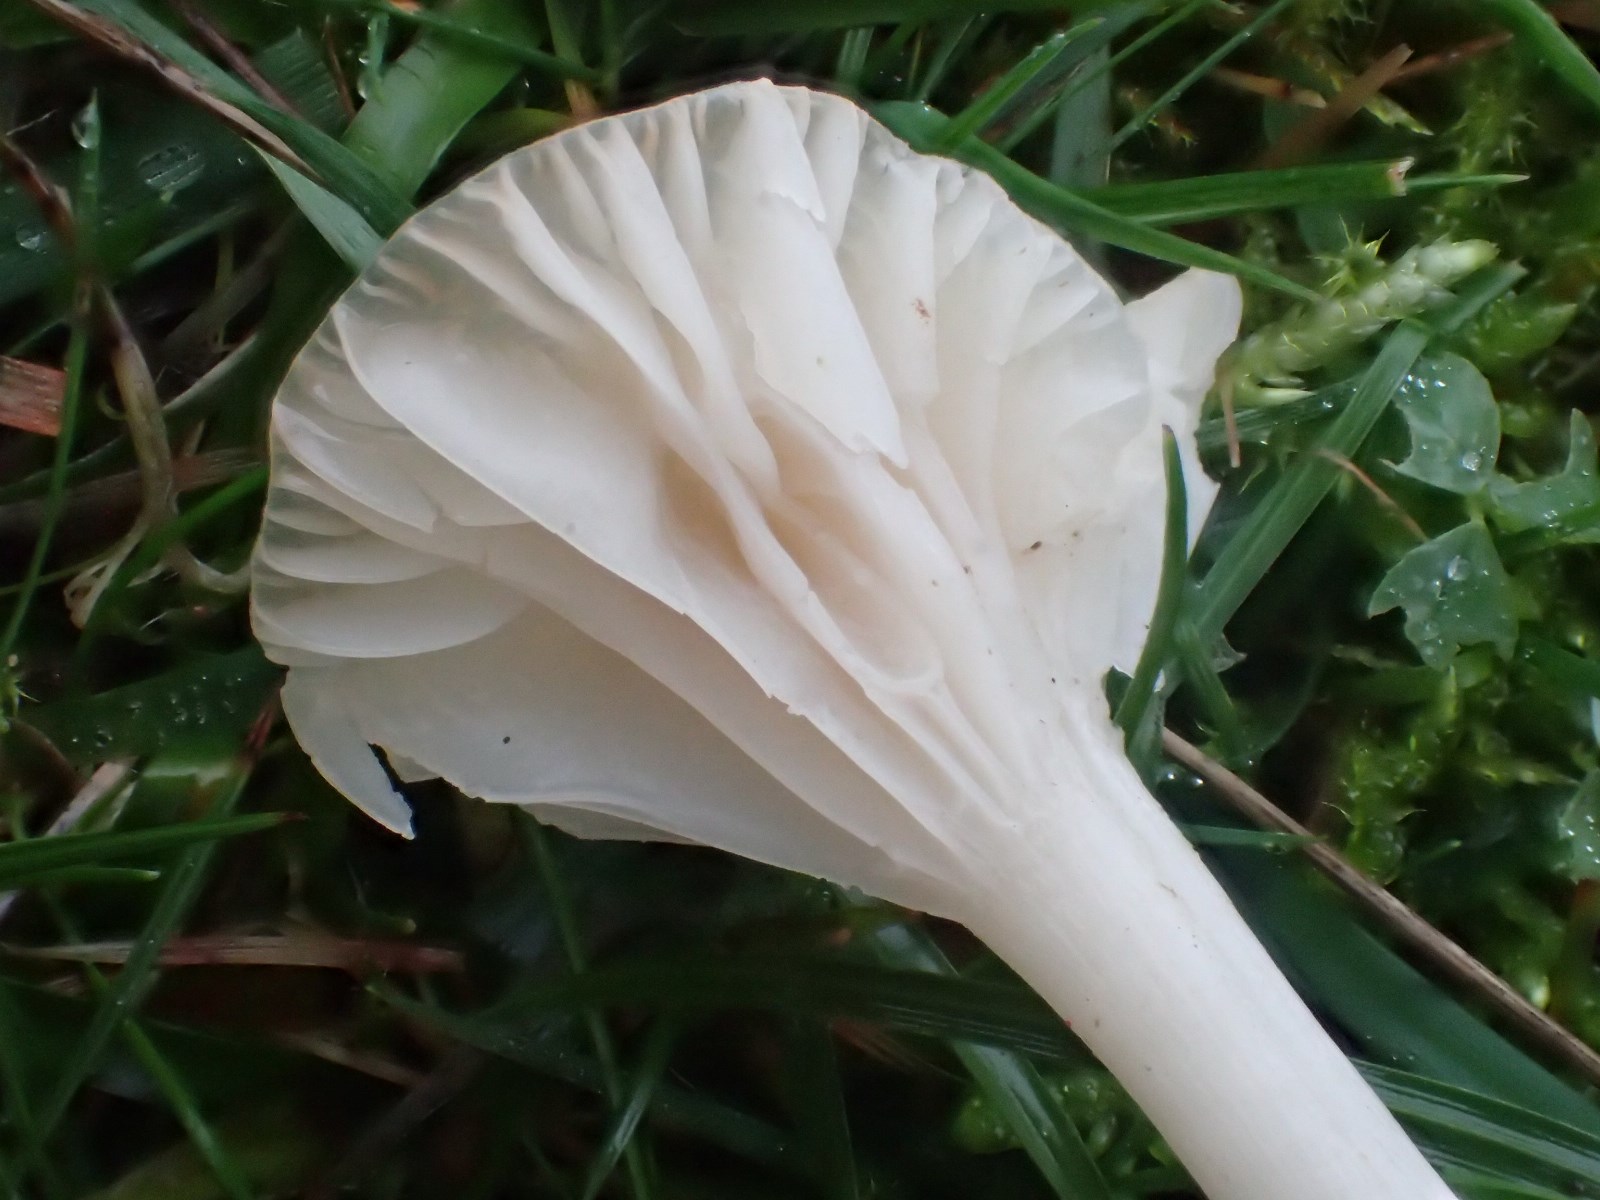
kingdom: Fungi
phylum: Basidiomycota
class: Agaricomycetes
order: Agaricales
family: Hygrophoraceae
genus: Cuphophyllus
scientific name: Cuphophyllus virgineus
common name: snehvid vokshat
